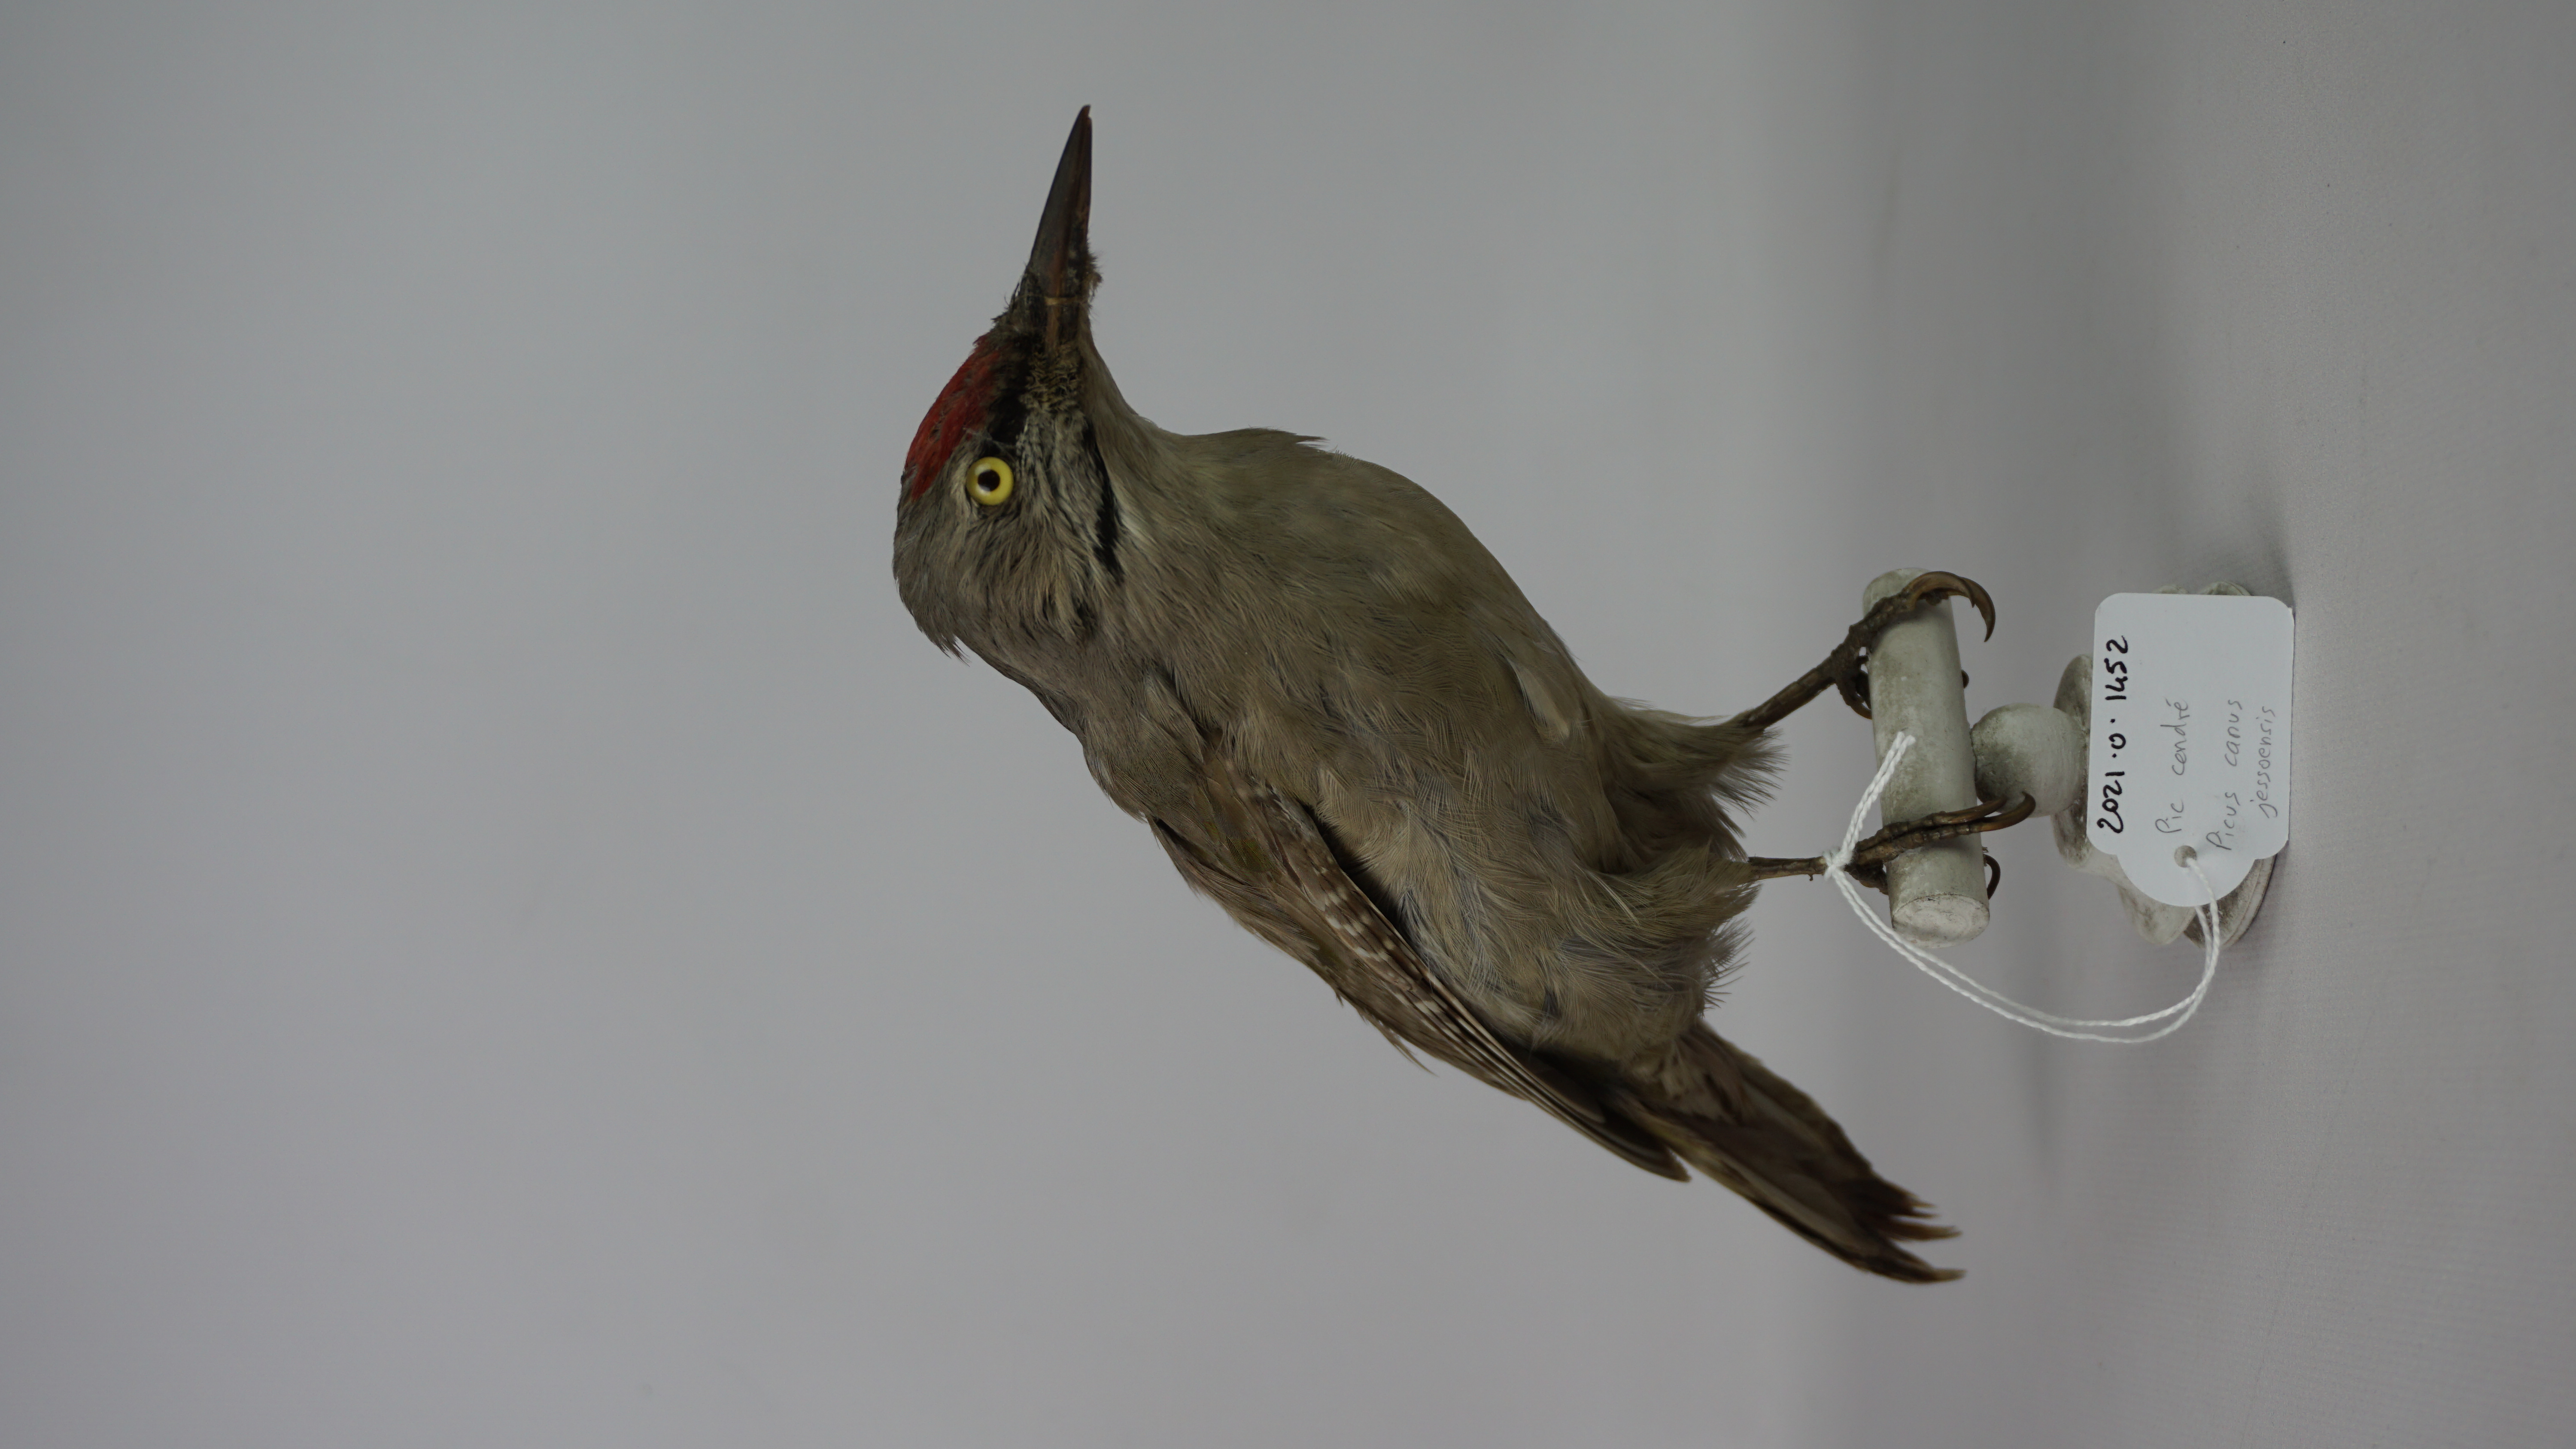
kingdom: Animalia
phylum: Chordata
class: Aves
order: Piciformes
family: Picidae
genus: Picus
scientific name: Picus canus
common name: Grey-headed woodpecker
